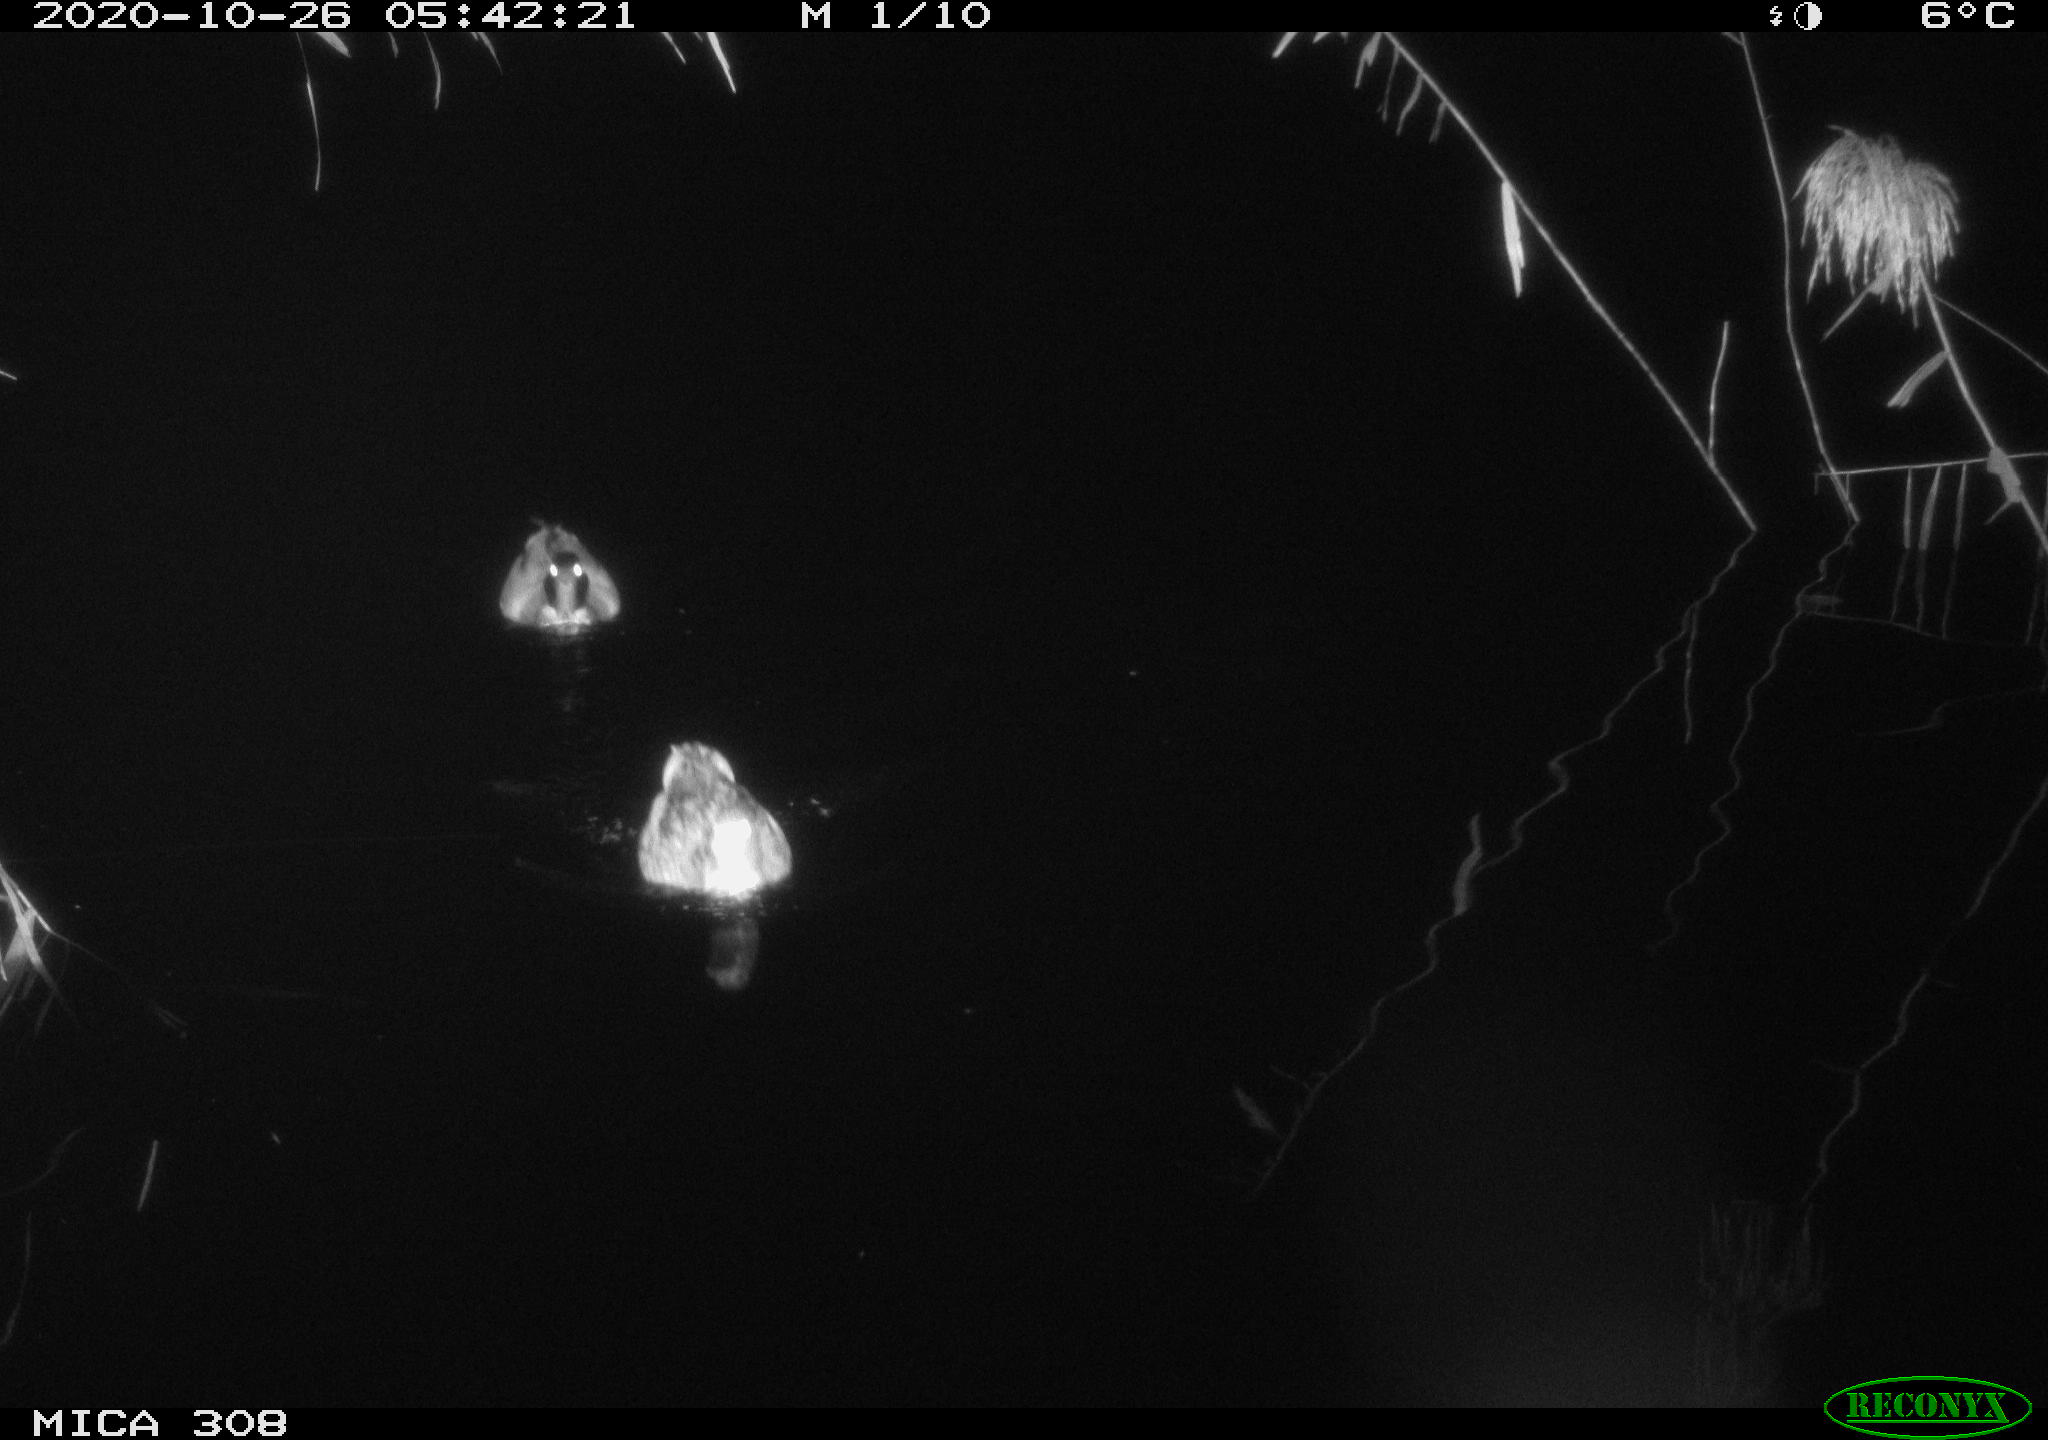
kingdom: Animalia
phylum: Chordata
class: Aves
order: Anseriformes
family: Anatidae
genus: Anas
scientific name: Anas platyrhynchos
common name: Mallard
